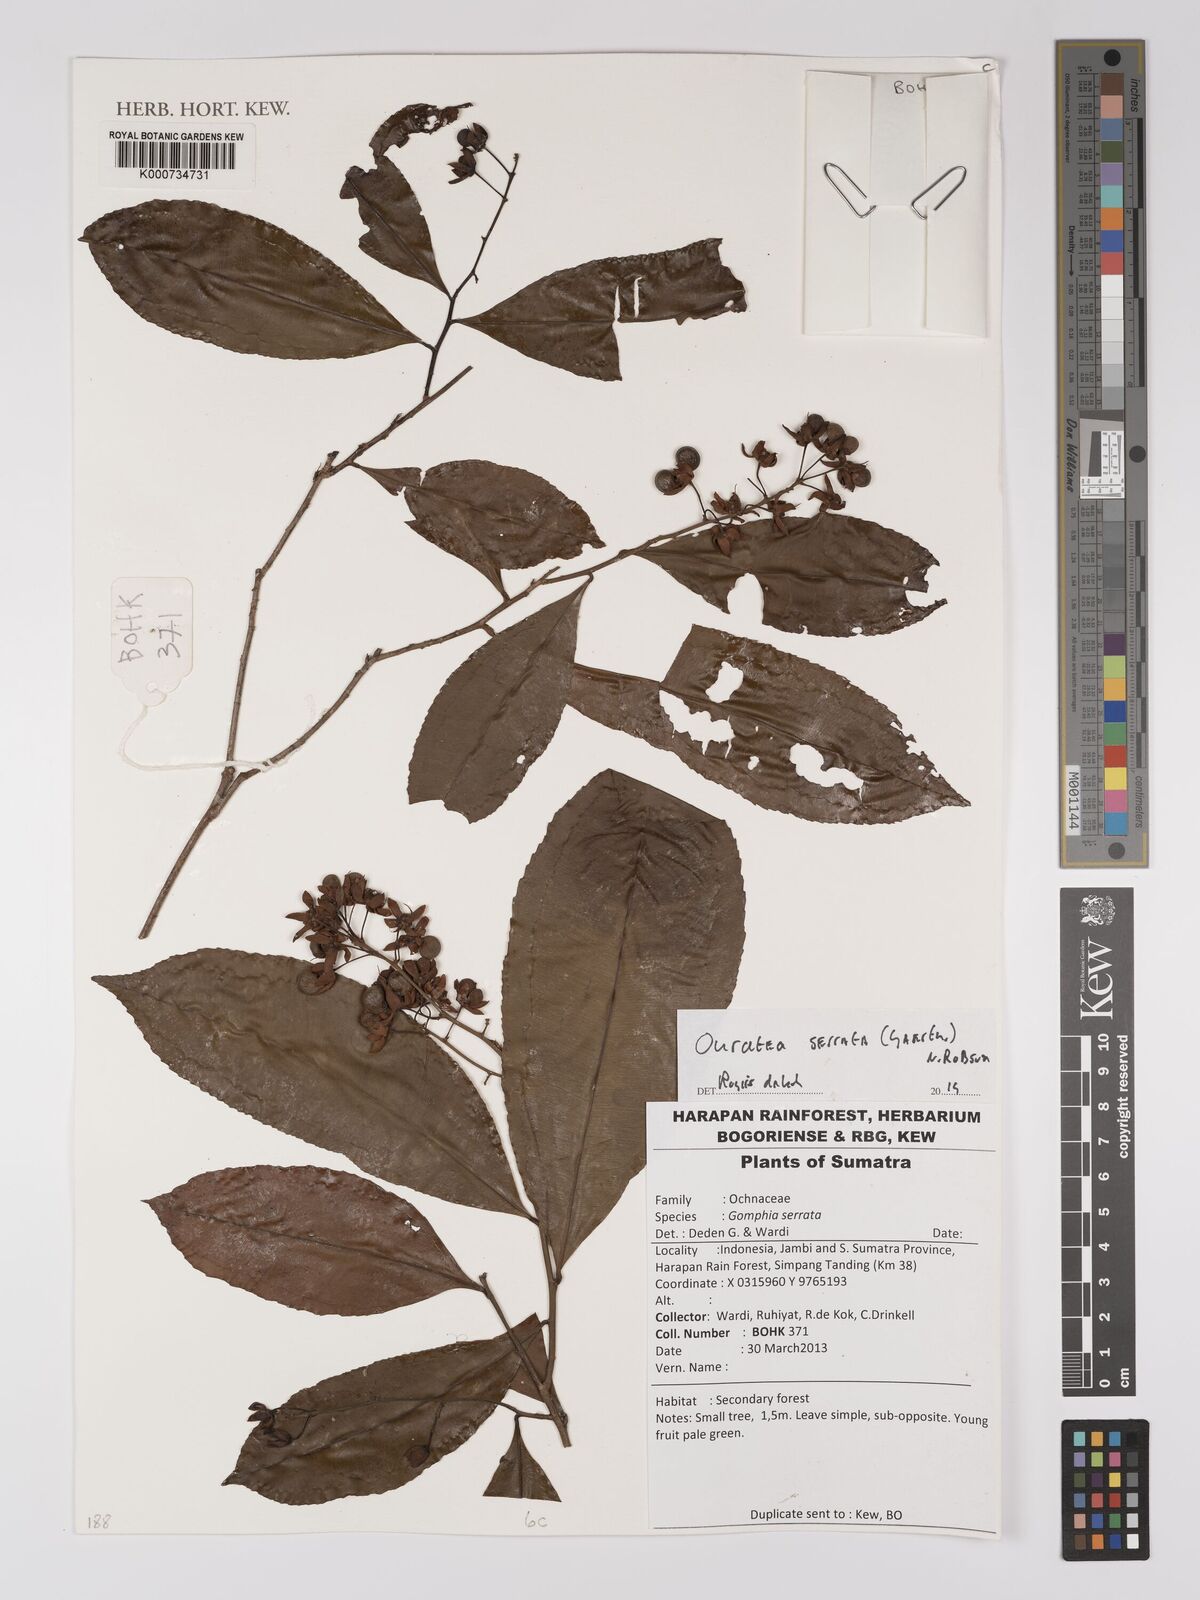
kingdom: Plantae
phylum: Tracheophyta
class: Magnoliopsida
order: Malpighiales
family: Ochnaceae
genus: Gomphia
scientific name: Gomphia serrata
